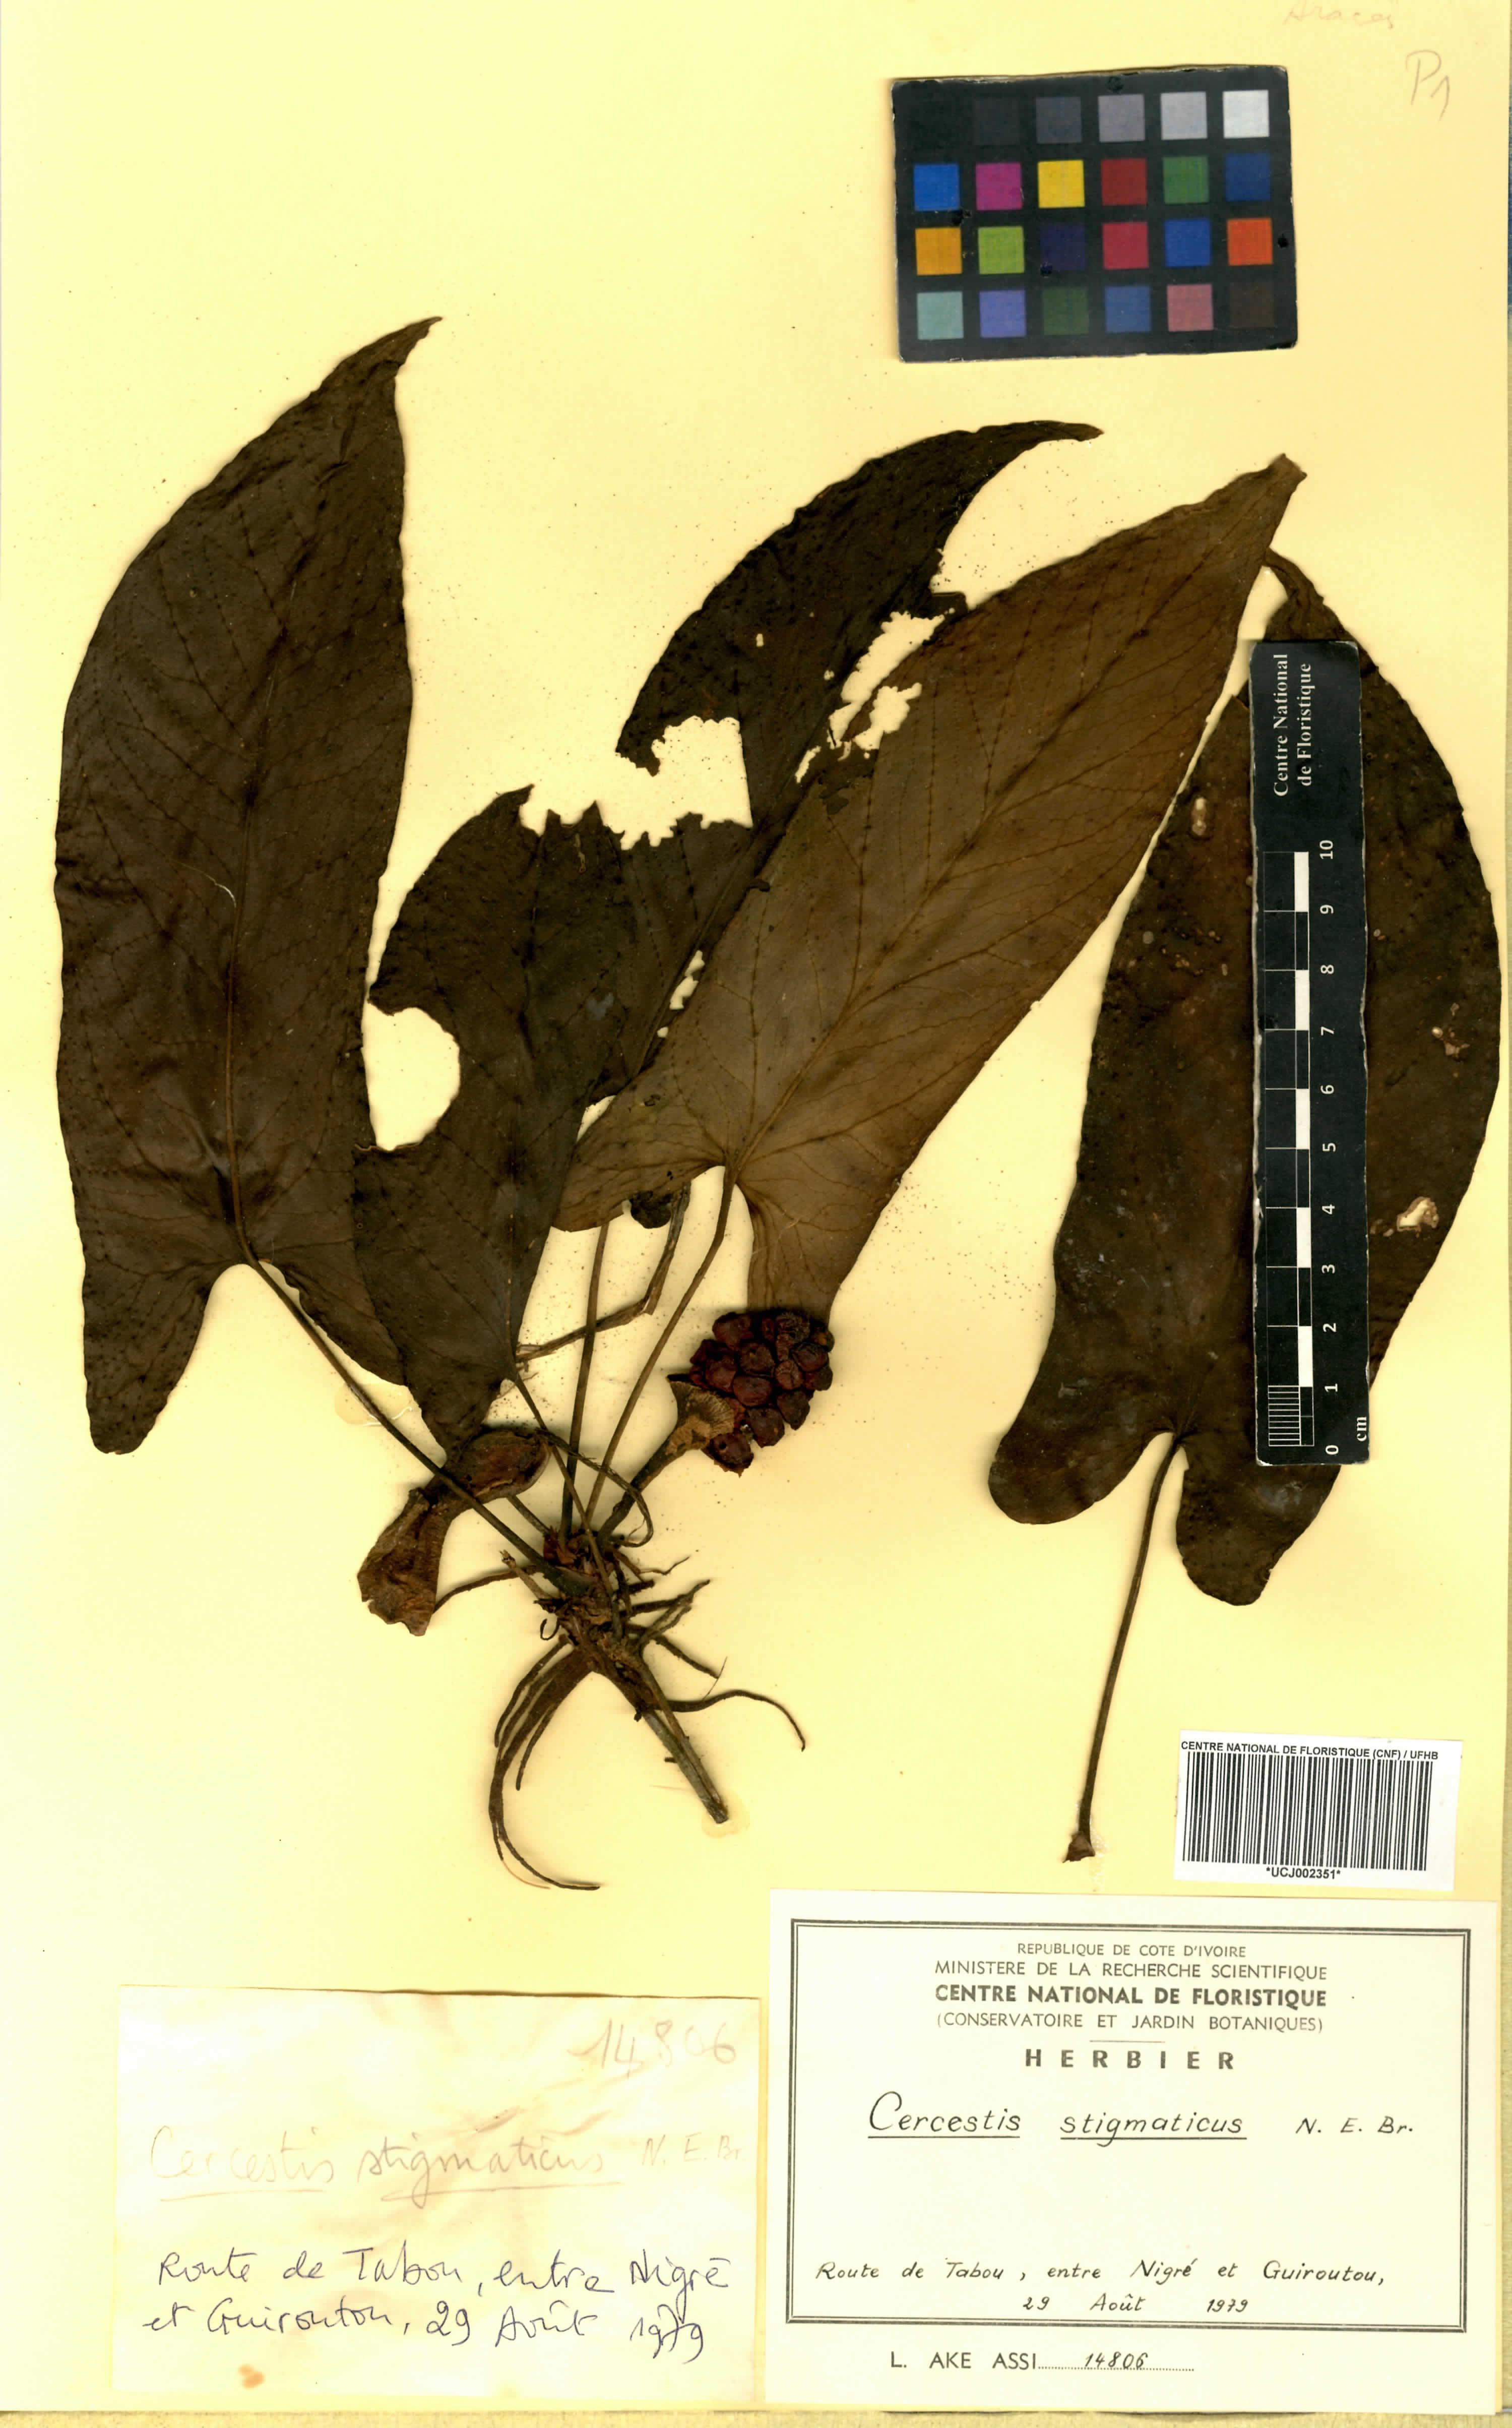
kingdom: Plantae
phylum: Tracheophyta
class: Liliopsida
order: Alismatales
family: Araceae
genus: Cercestis
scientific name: Cercestis dinklagei
